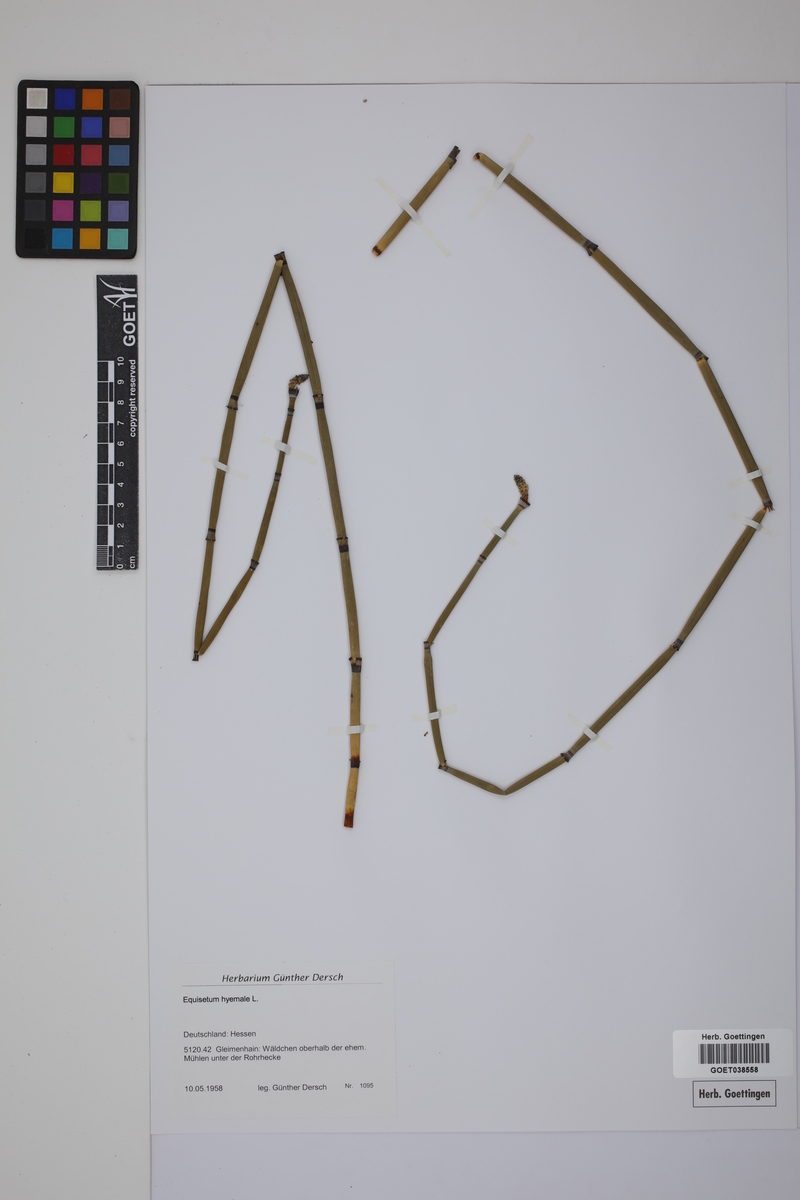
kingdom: Plantae
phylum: Tracheophyta
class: Polypodiopsida
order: Equisetales
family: Equisetaceae
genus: Equisetum
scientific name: Equisetum hyemale
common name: Rough horsetail
